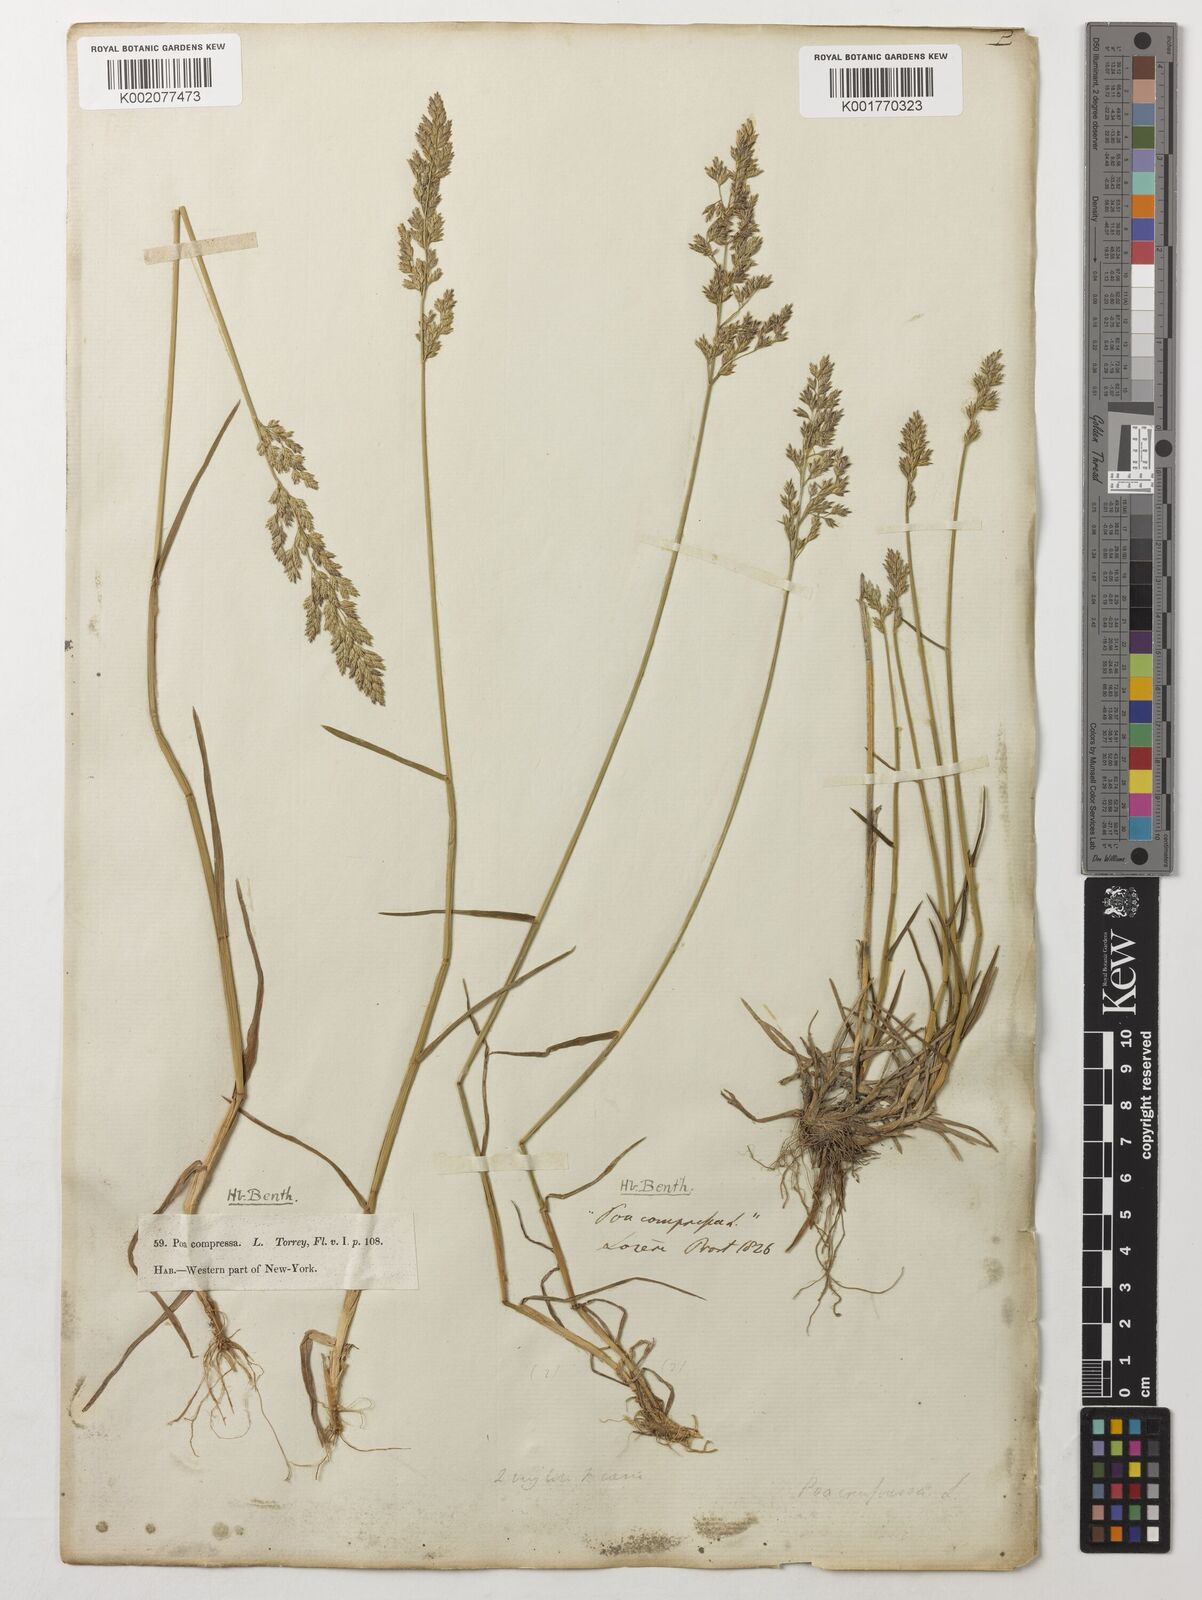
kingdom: Plantae
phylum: Tracheophyta
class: Liliopsida
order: Poales
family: Poaceae
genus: Poa
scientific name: Poa compressa
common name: Canada bluegrass
